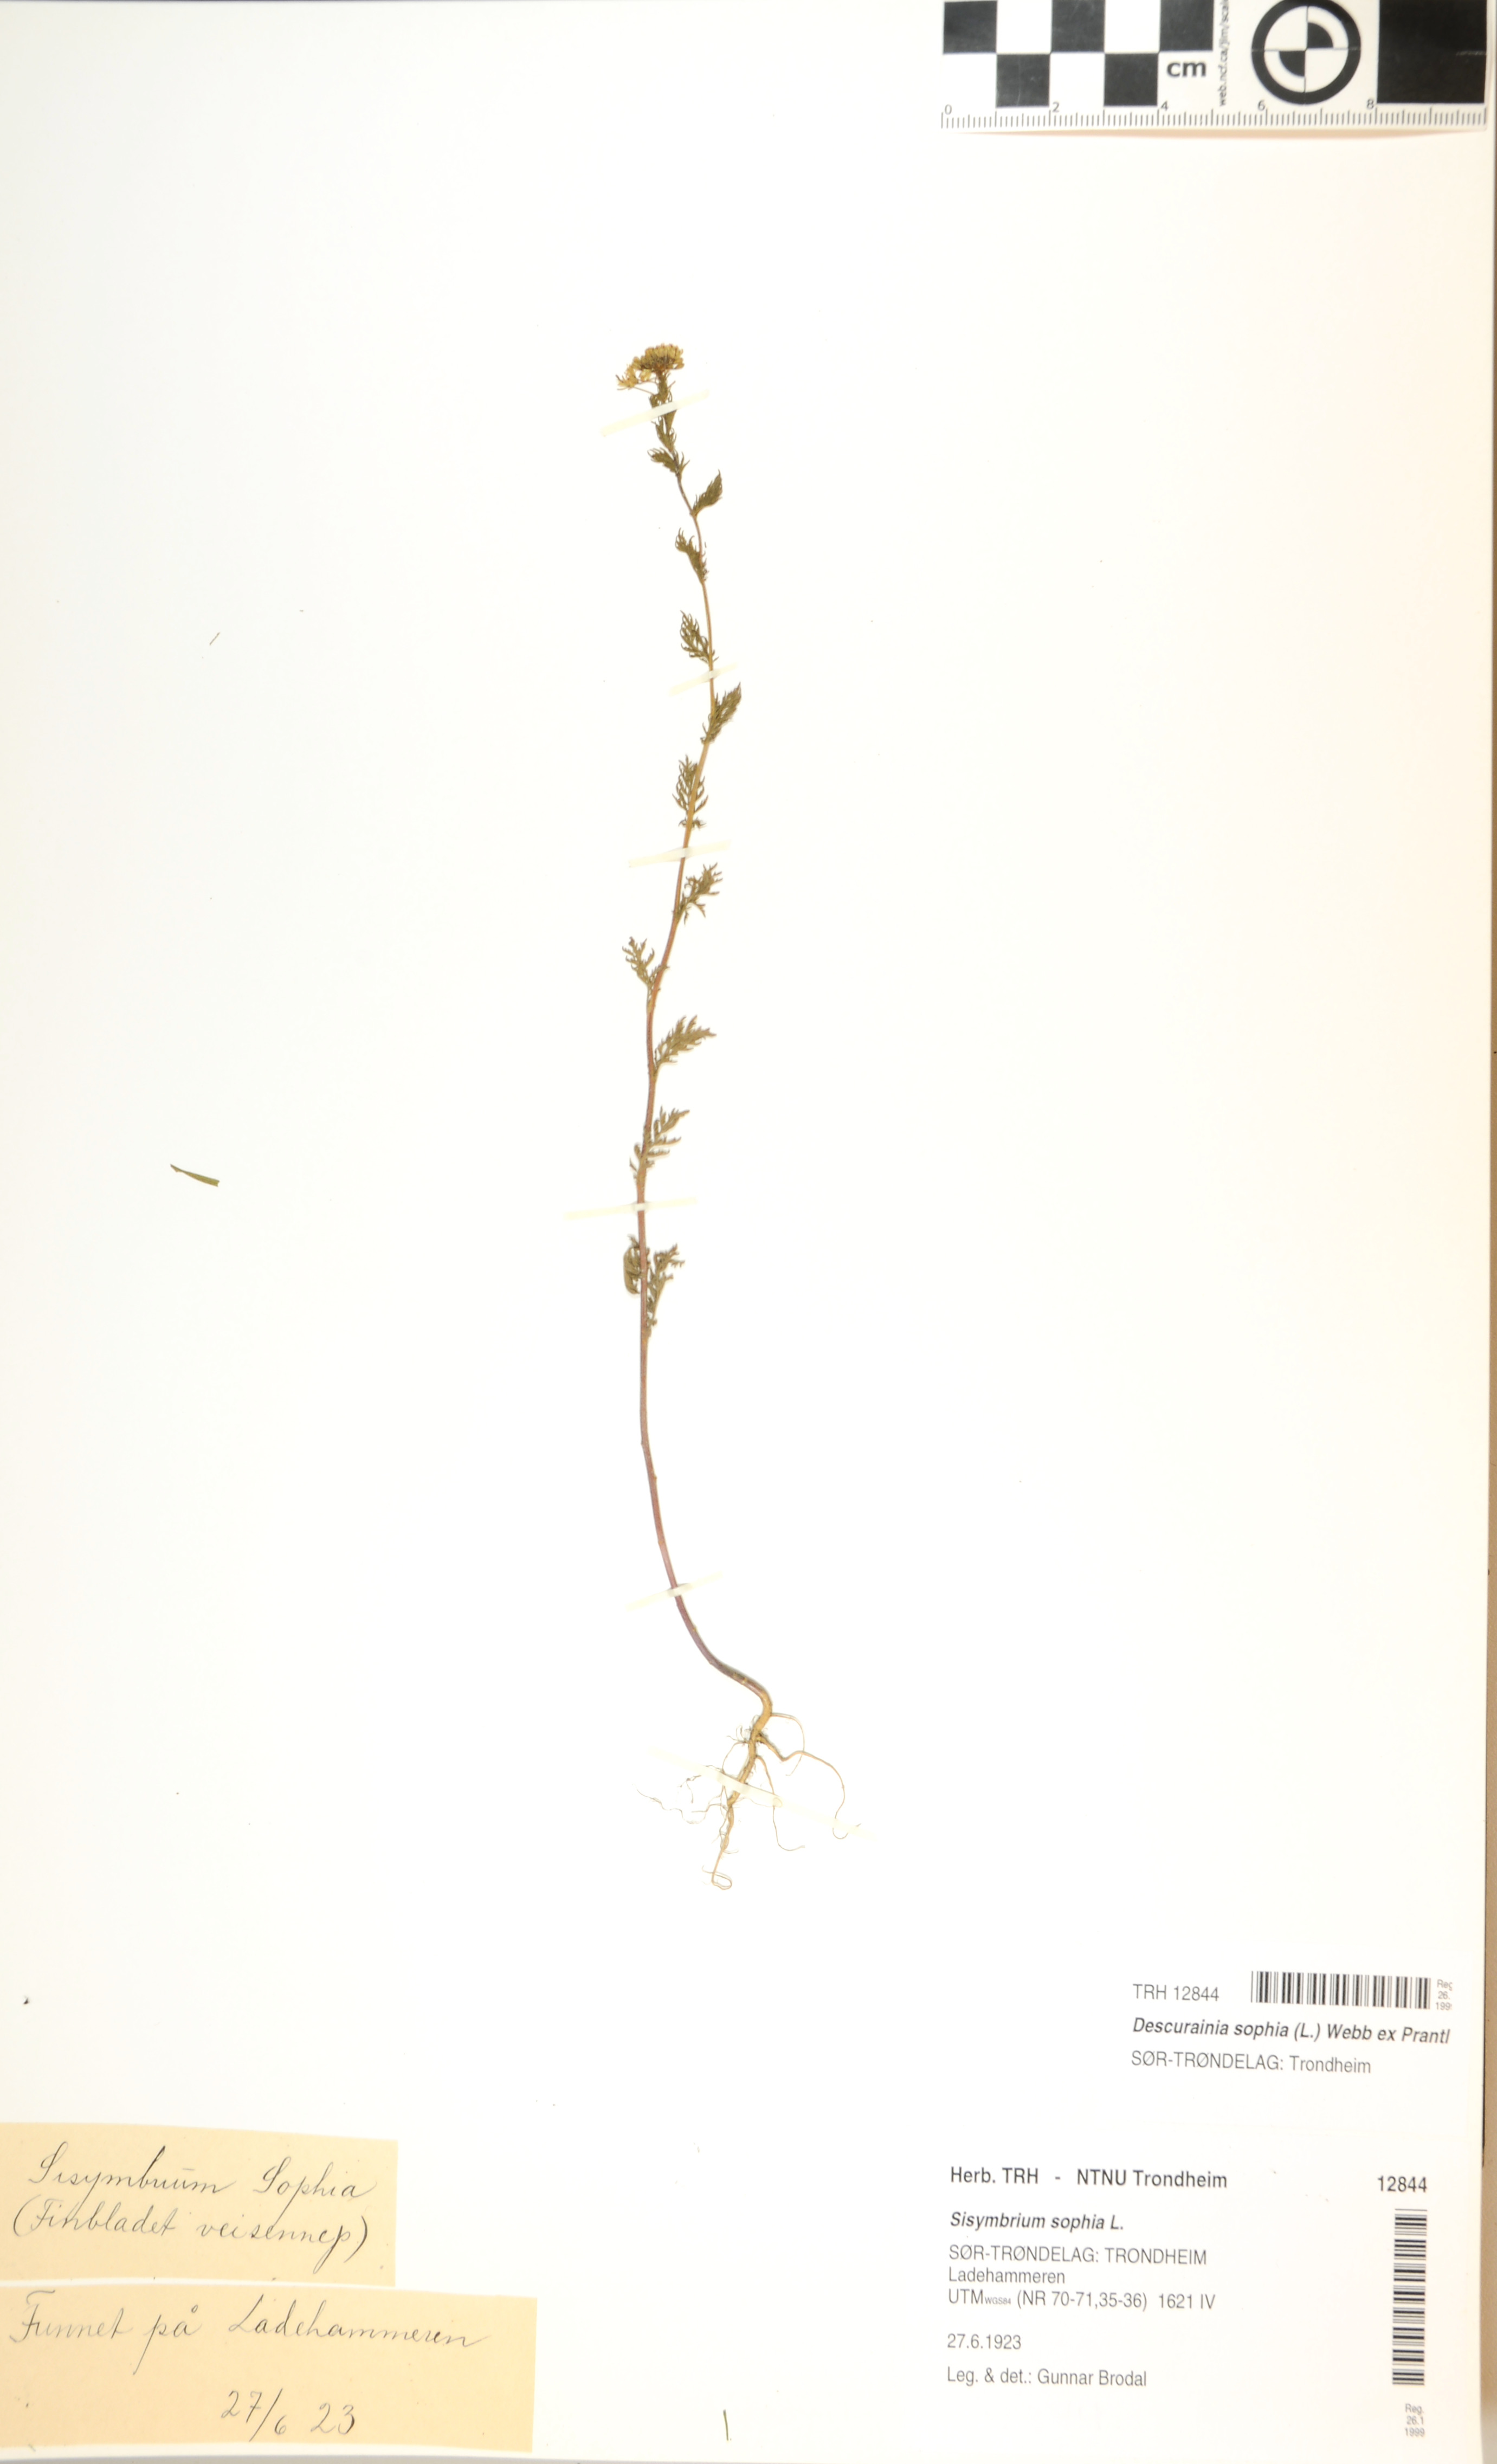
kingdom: Plantae
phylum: Tracheophyta
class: Magnoliopsida
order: Brassicales
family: Brassicaceae
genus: Descurainia
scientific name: Descurainia sophia
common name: Flixweed
